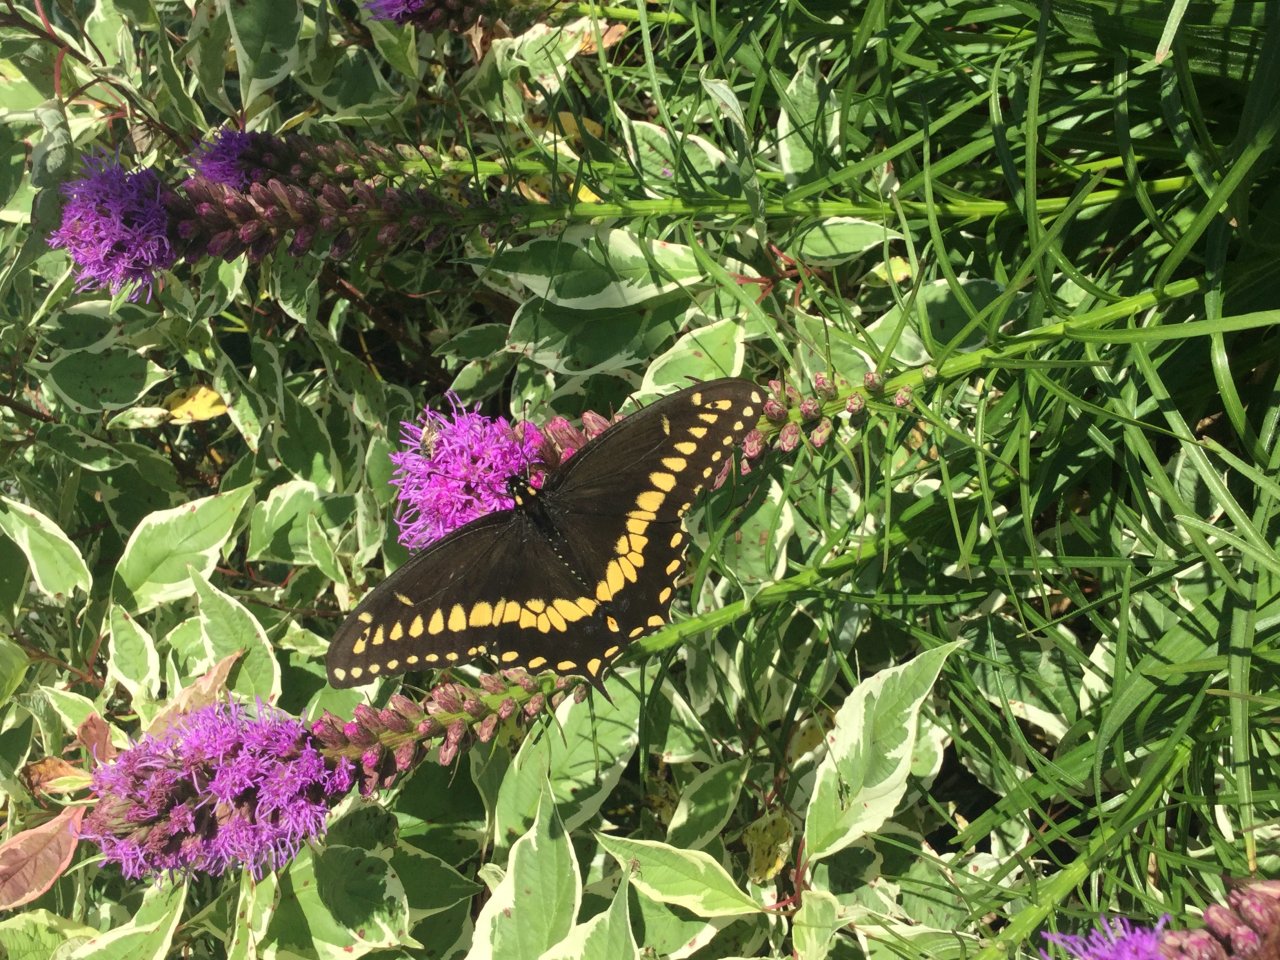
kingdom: Animalia
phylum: Arthropoda
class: Insecta
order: Lepidoptera
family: Papilionidae
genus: Papilio
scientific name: Papilio polyxenes
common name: Black Swallowtail
